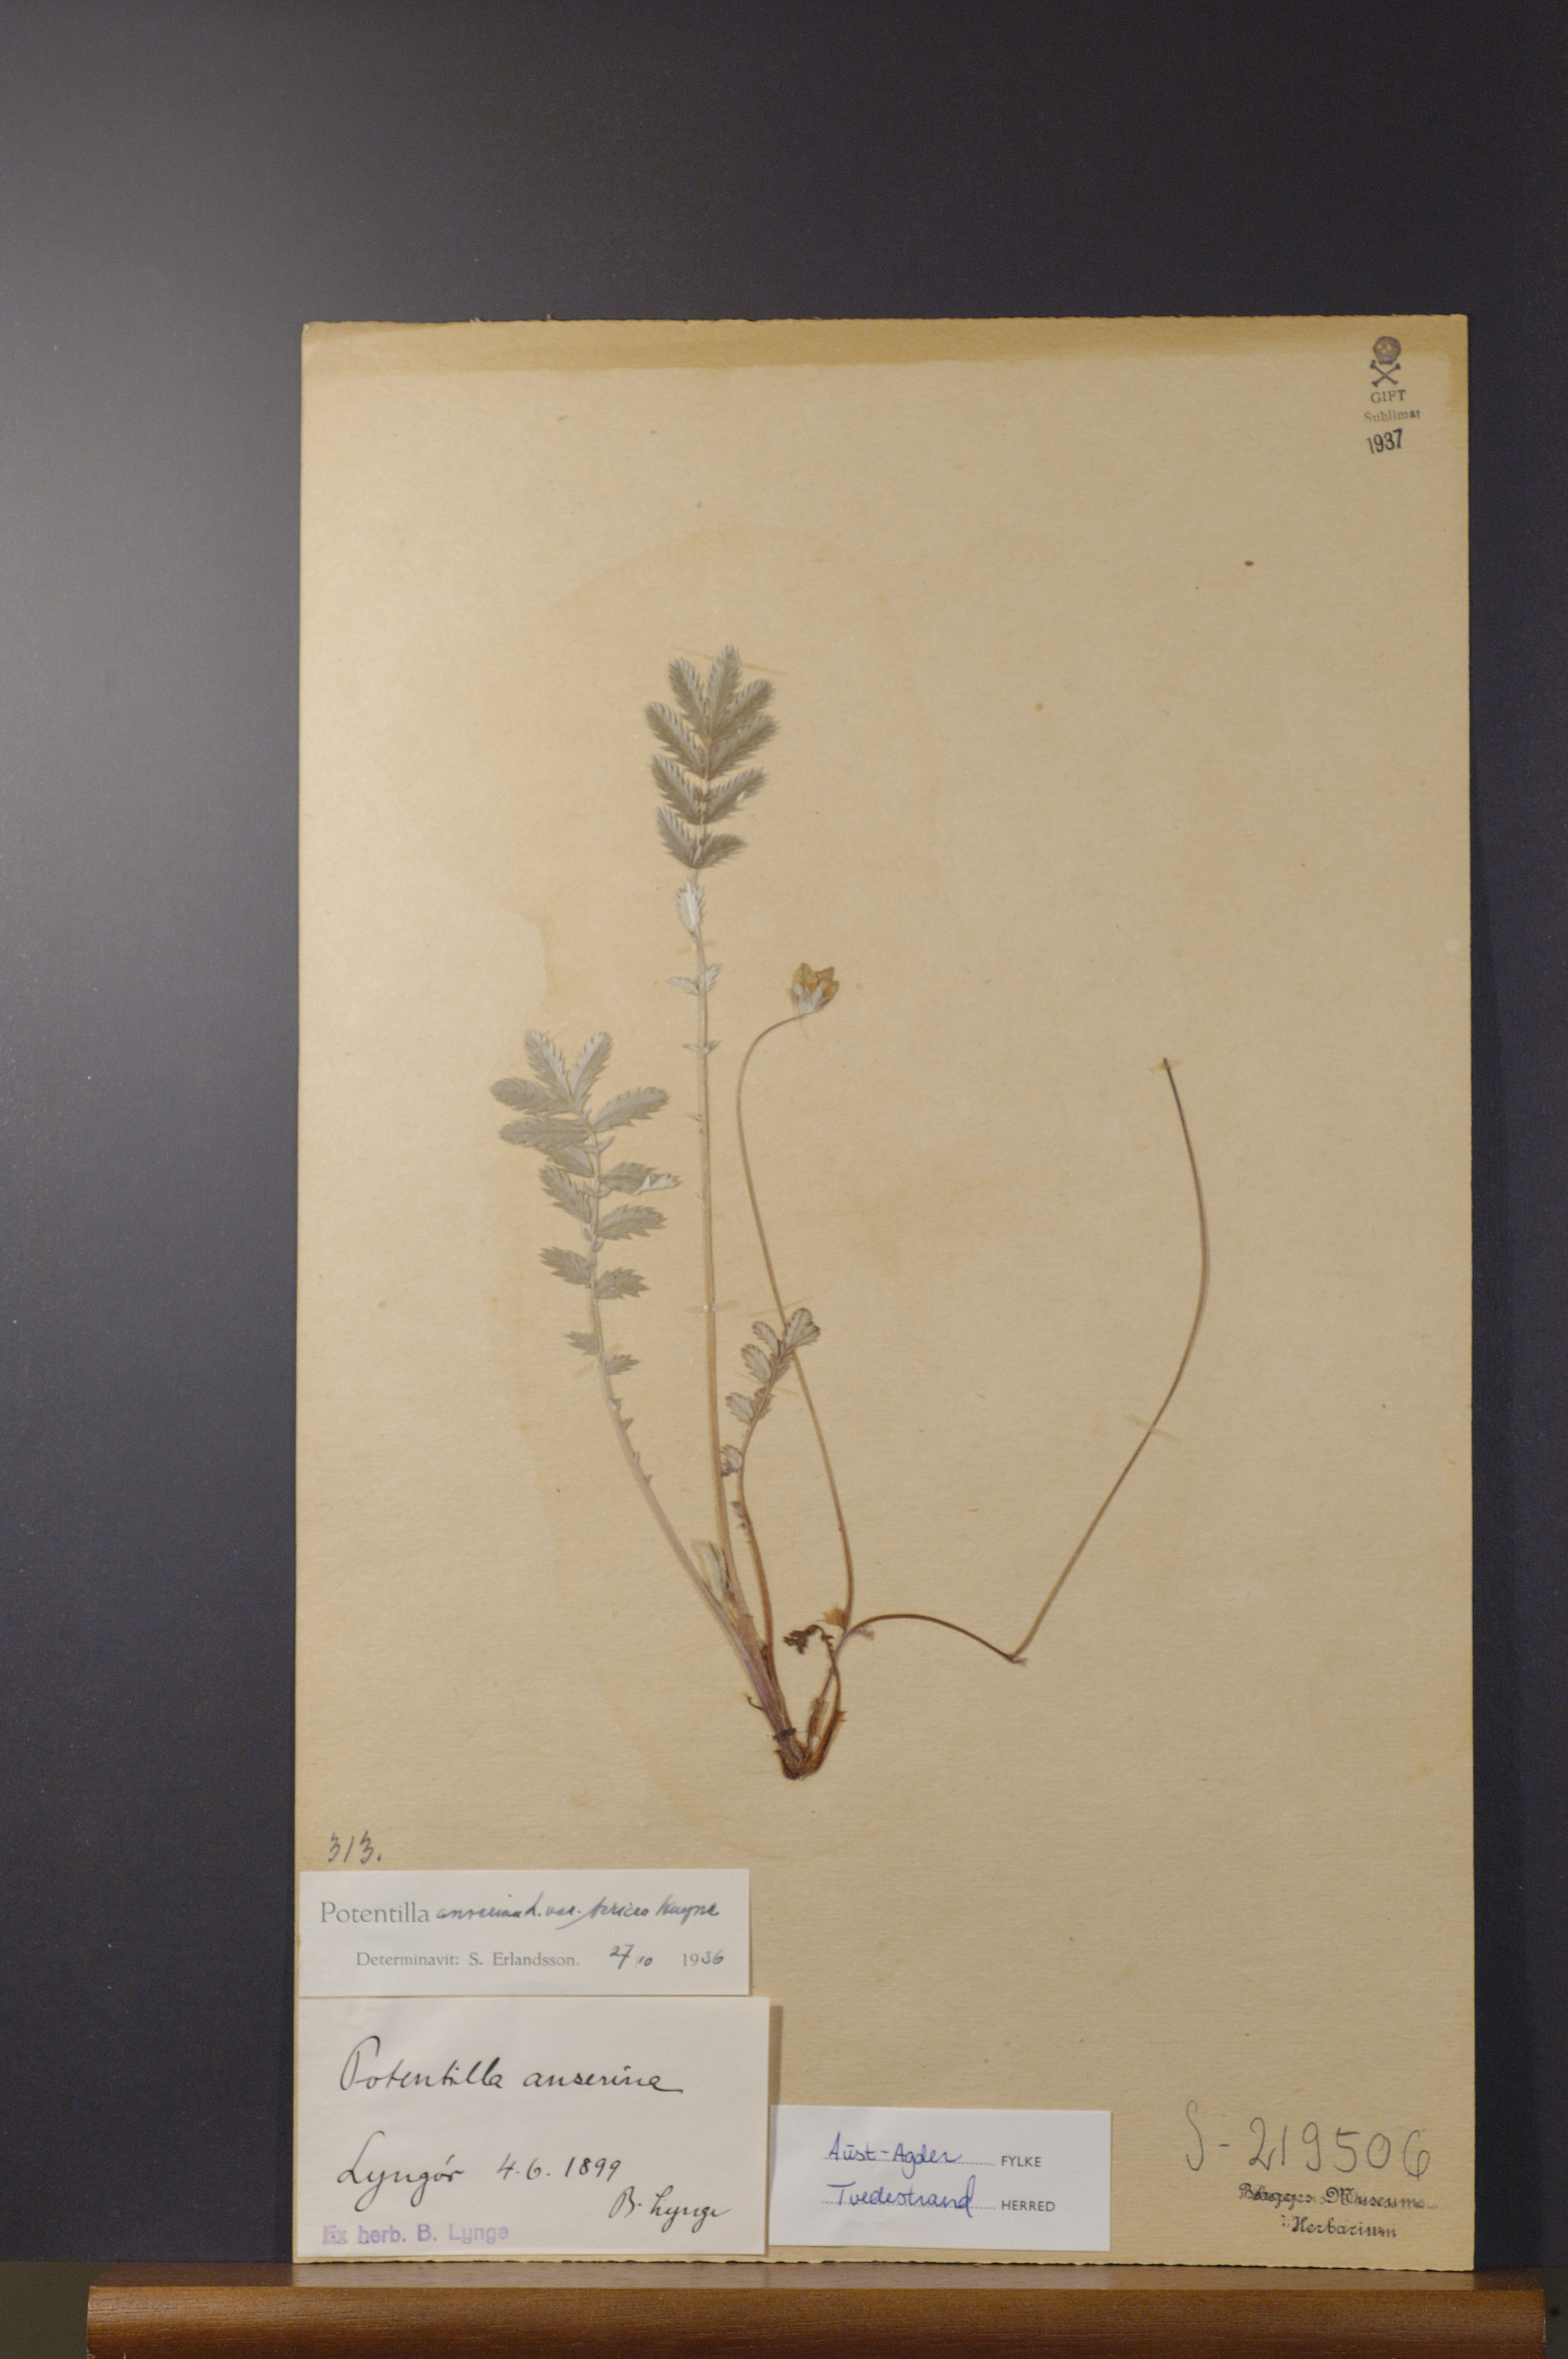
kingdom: Plantae
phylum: Tracheophyta
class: Magnoliopsida
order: Rosales
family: Rosaceae
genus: Argentina
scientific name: Argentina anserina
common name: Common silverweed
